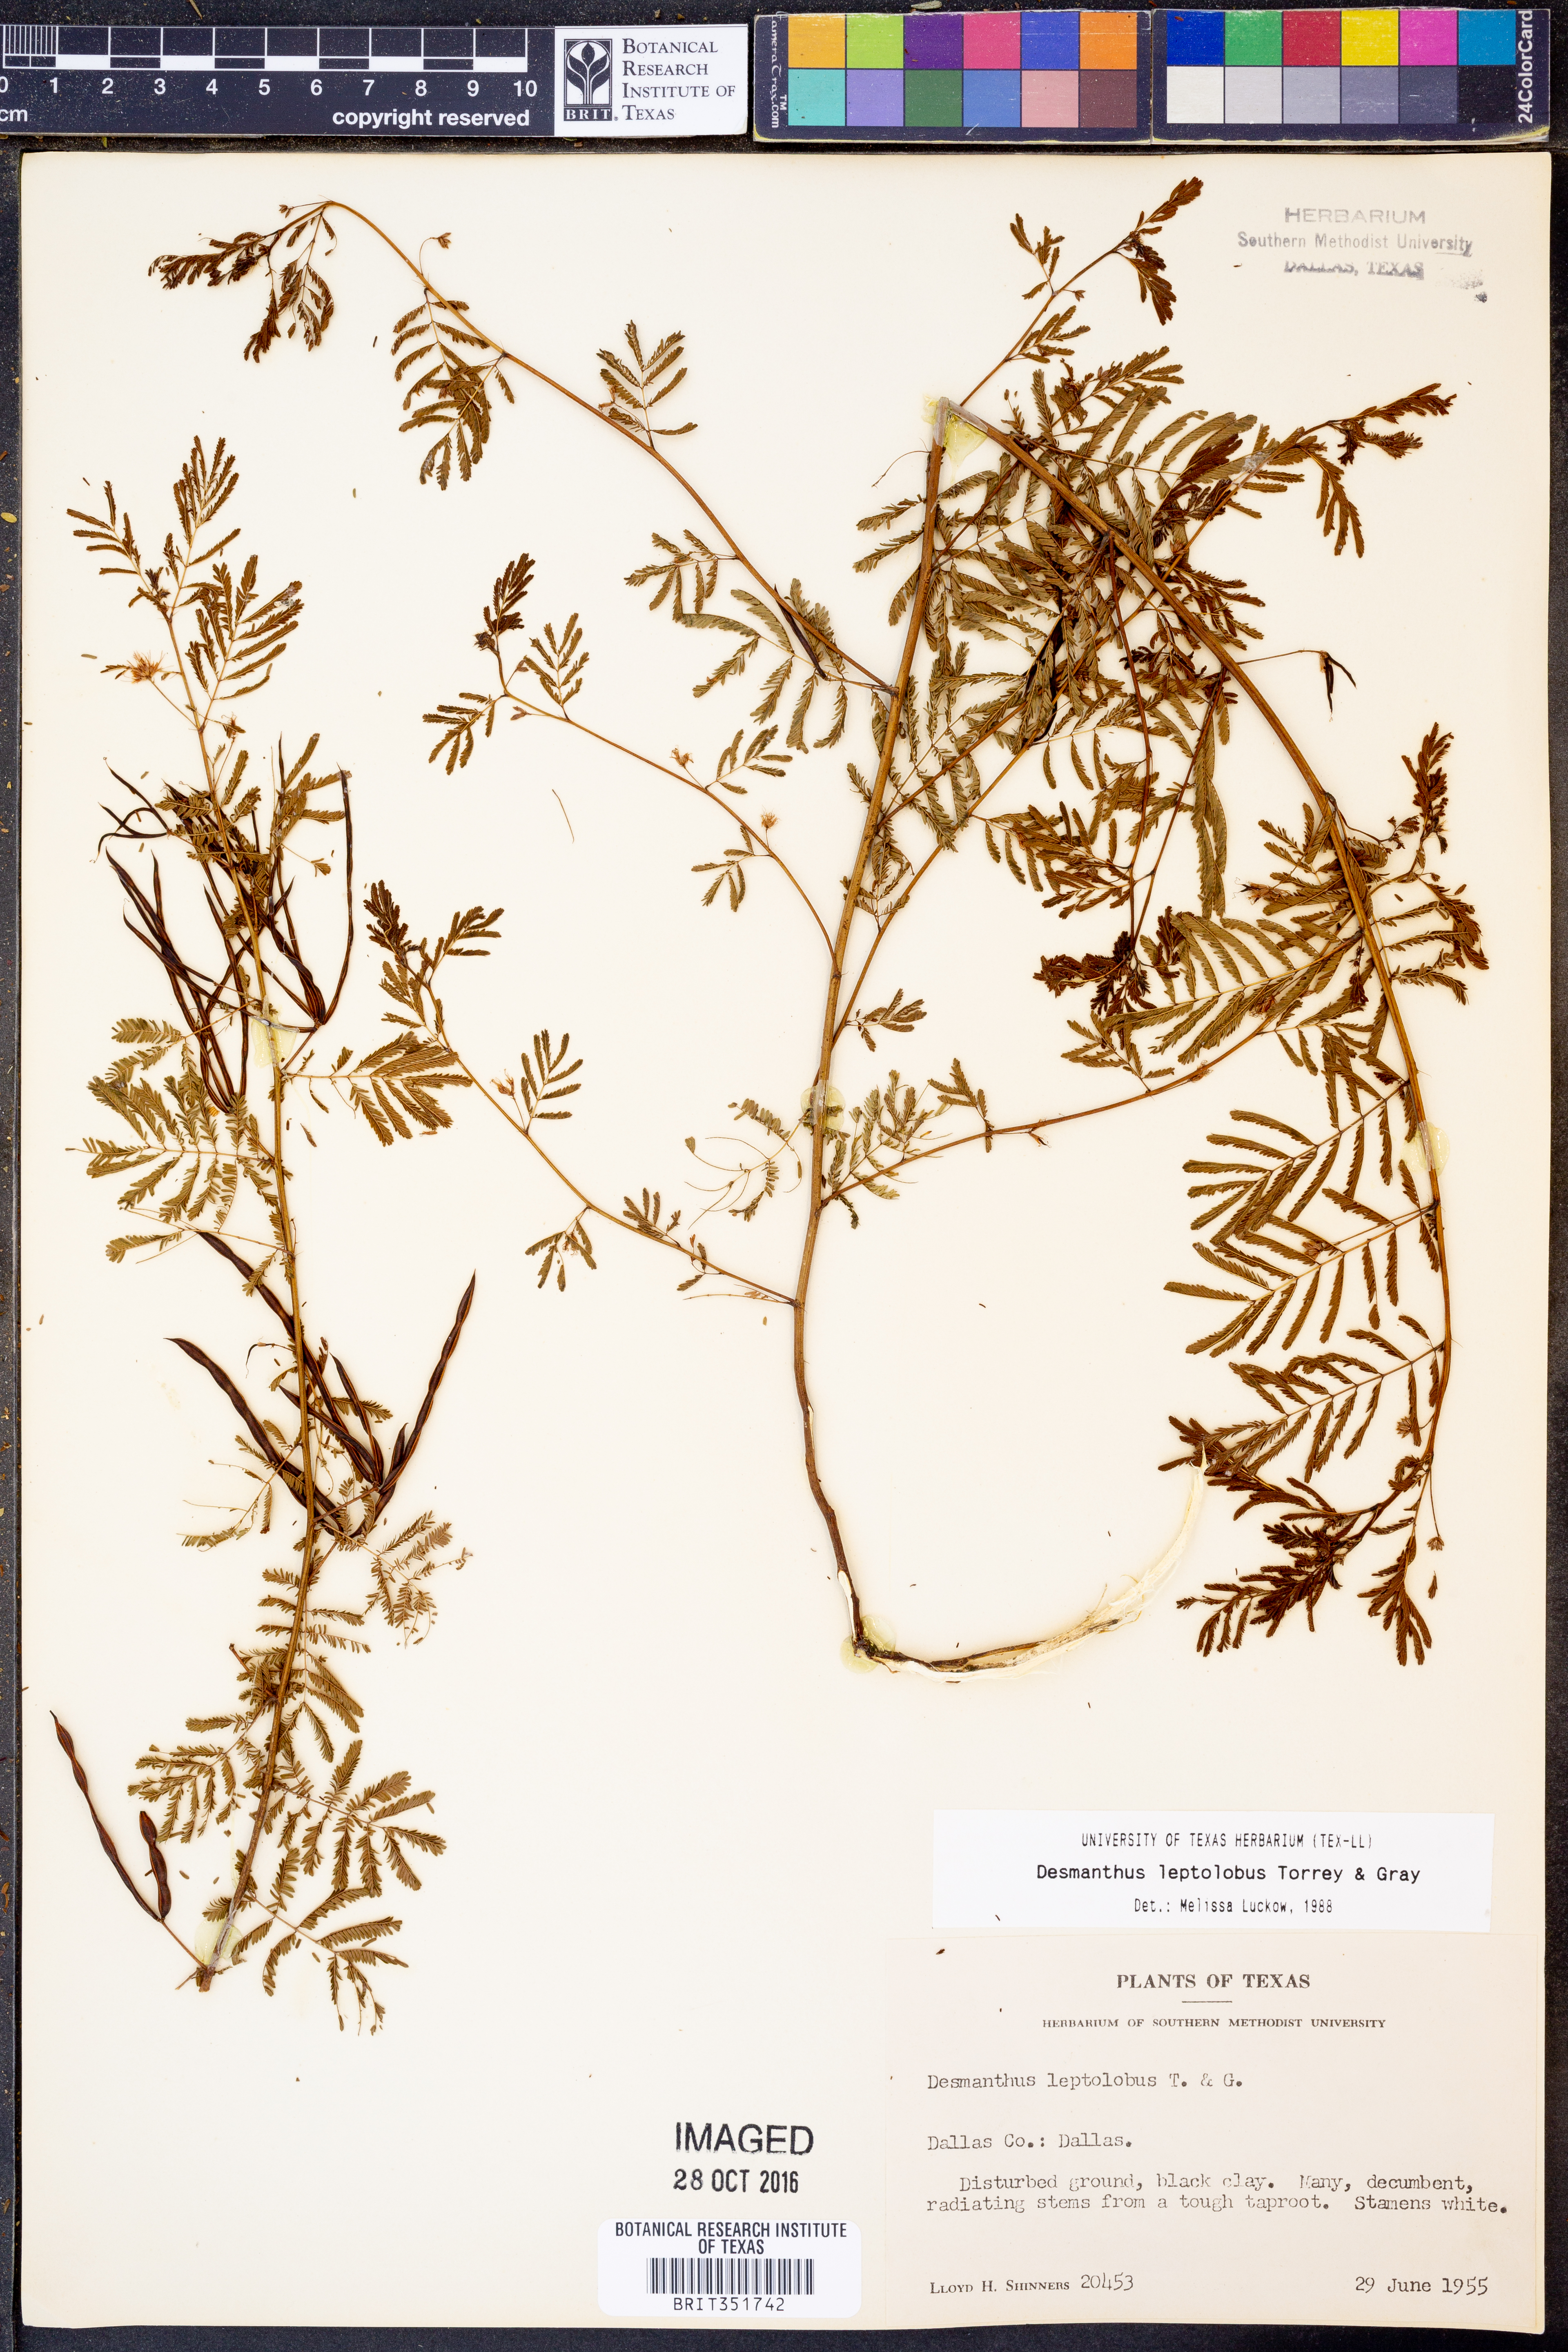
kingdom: Plantae
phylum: Tracheophyta
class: Magnoliopsida
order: Fabales
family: Fabaceae
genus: Desmanthus
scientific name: Desmanthus leptolobus
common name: Prairie-mimosa
